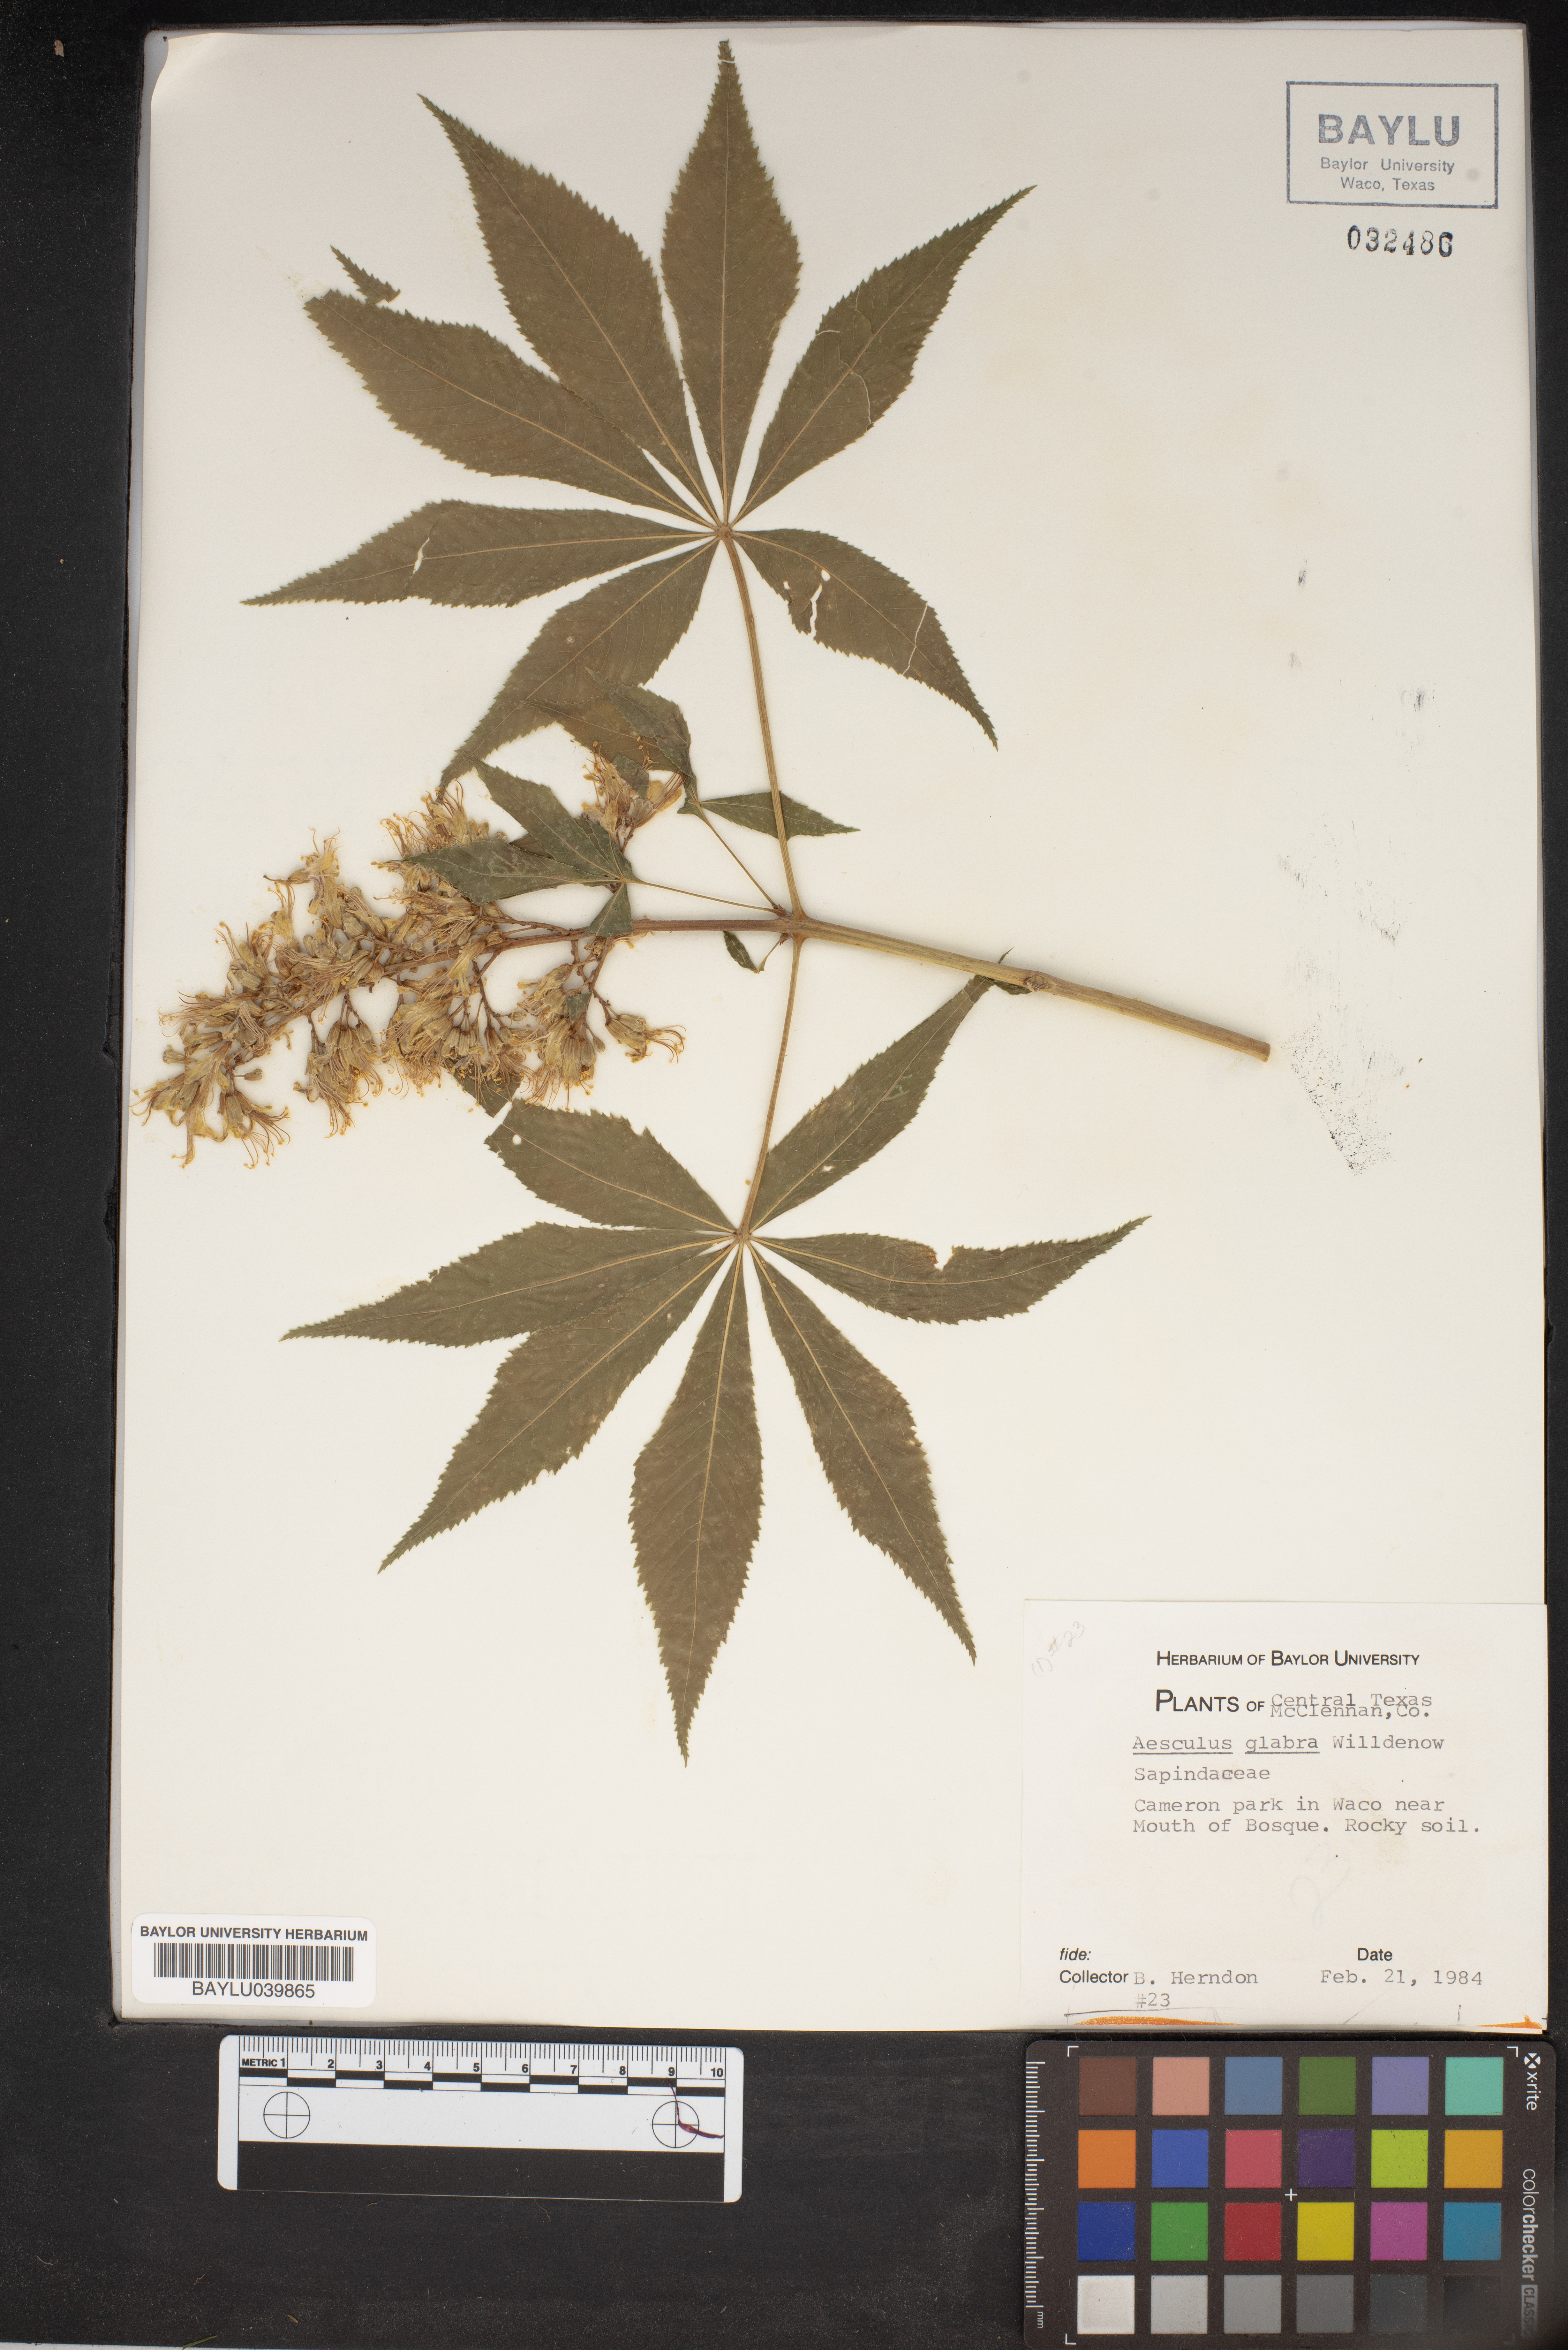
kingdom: Plantae
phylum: Tracheophyta
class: Magnoliopsida
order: Sapindales
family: Sapindaceae
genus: Aesculus
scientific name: Aesculus glabra
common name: Ohio buckeye
